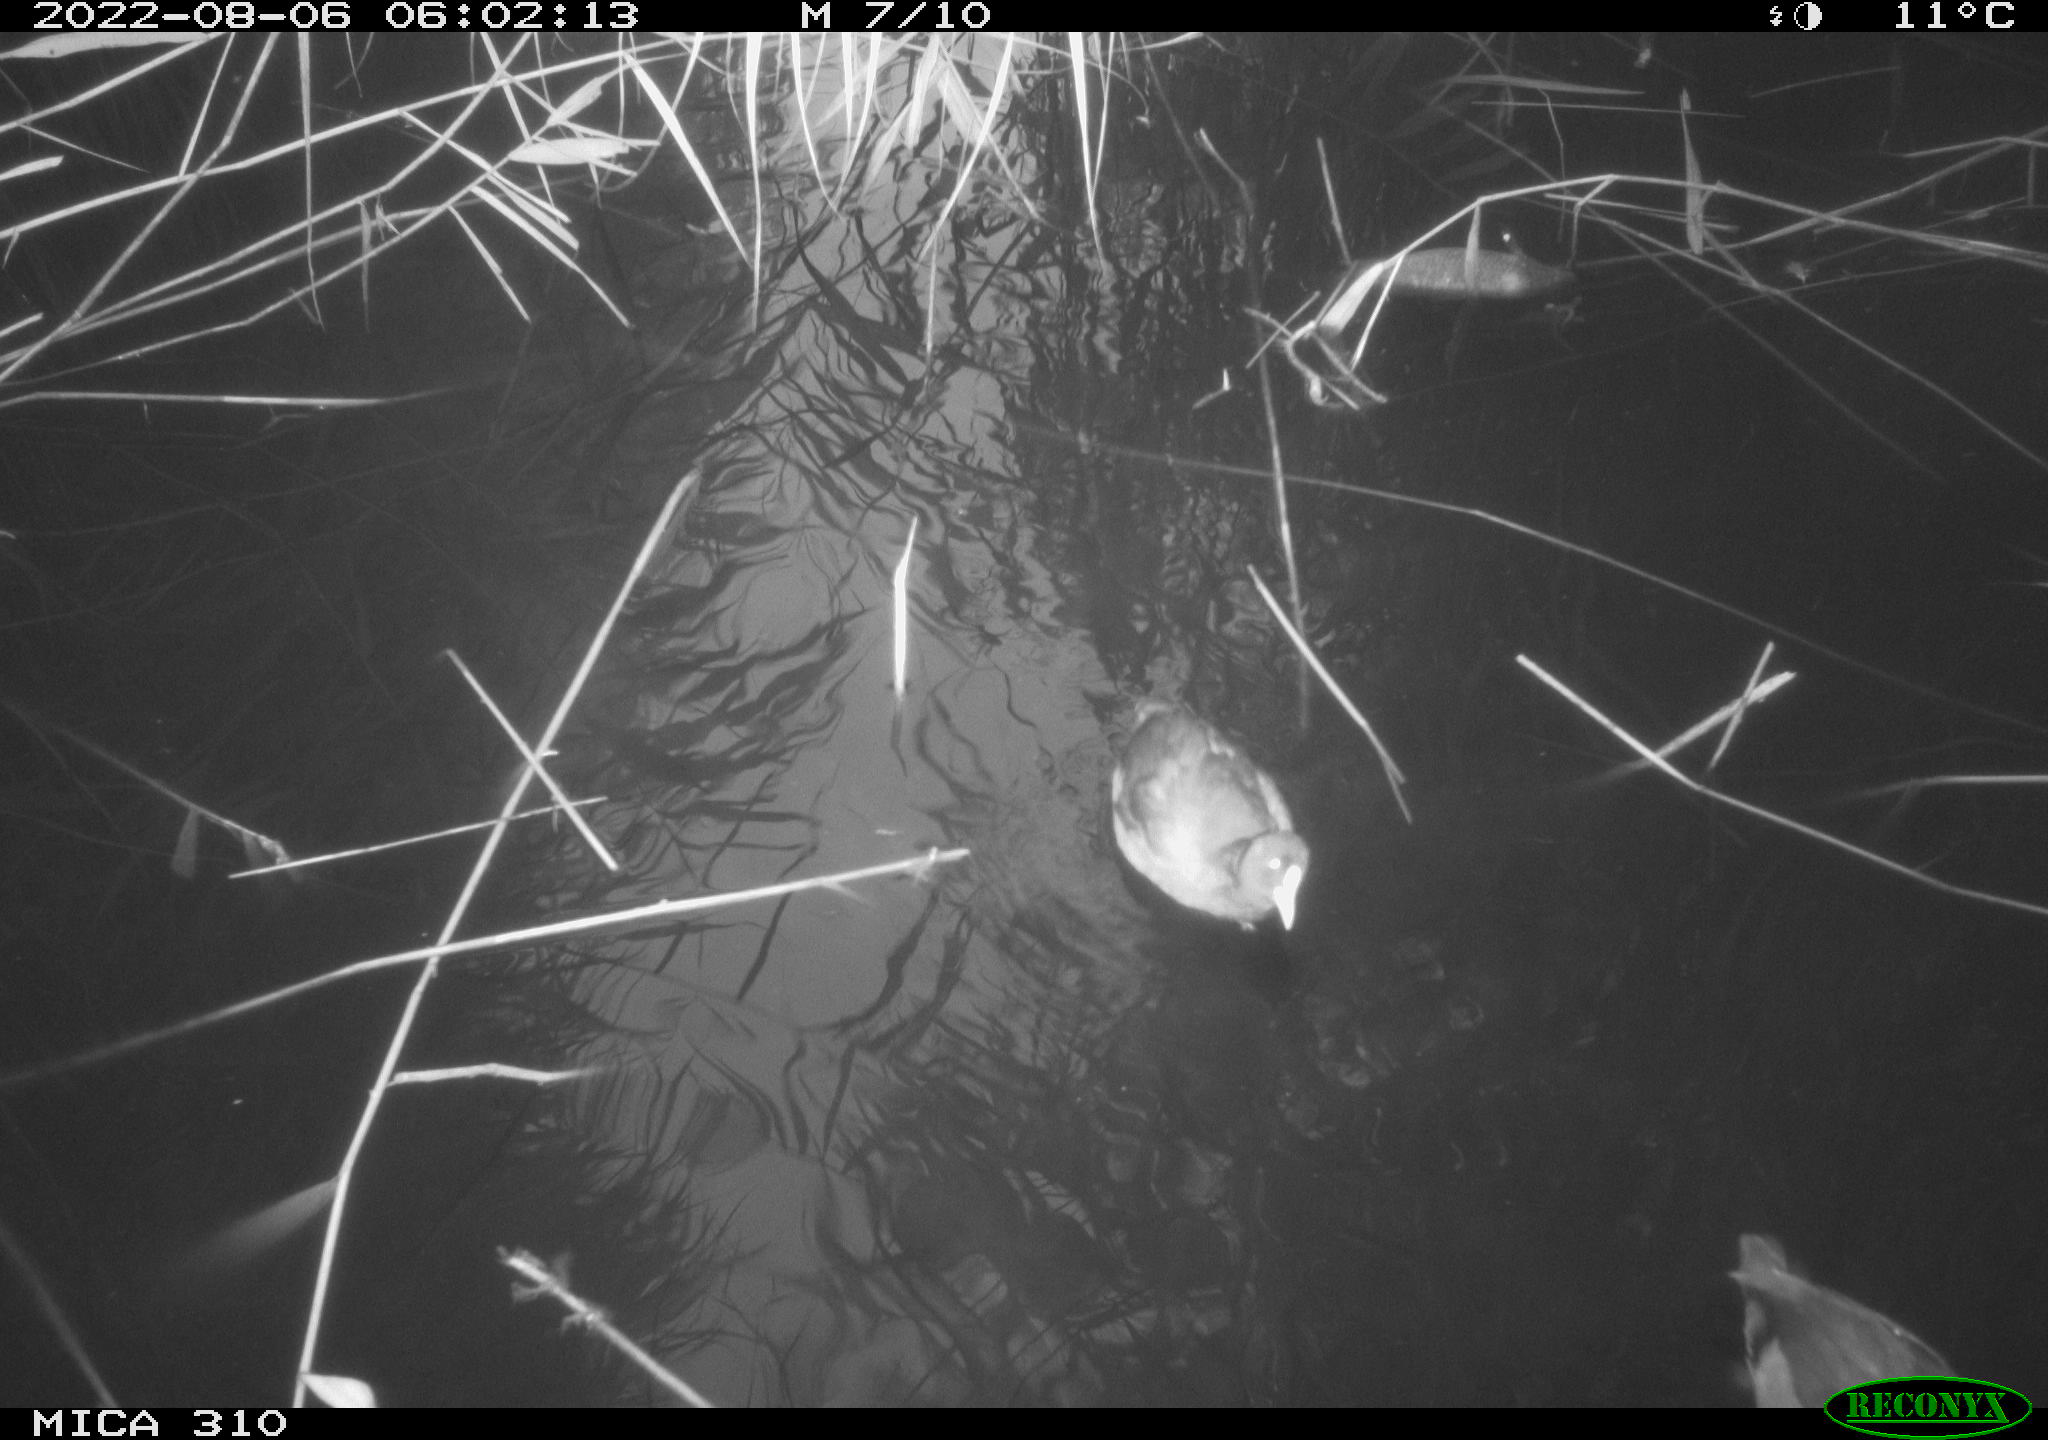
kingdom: Animalia
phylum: Chordata
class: Aves
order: Gruiformes
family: Rallidae
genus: Fulica
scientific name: Fulica atra
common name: Eurasian coot
